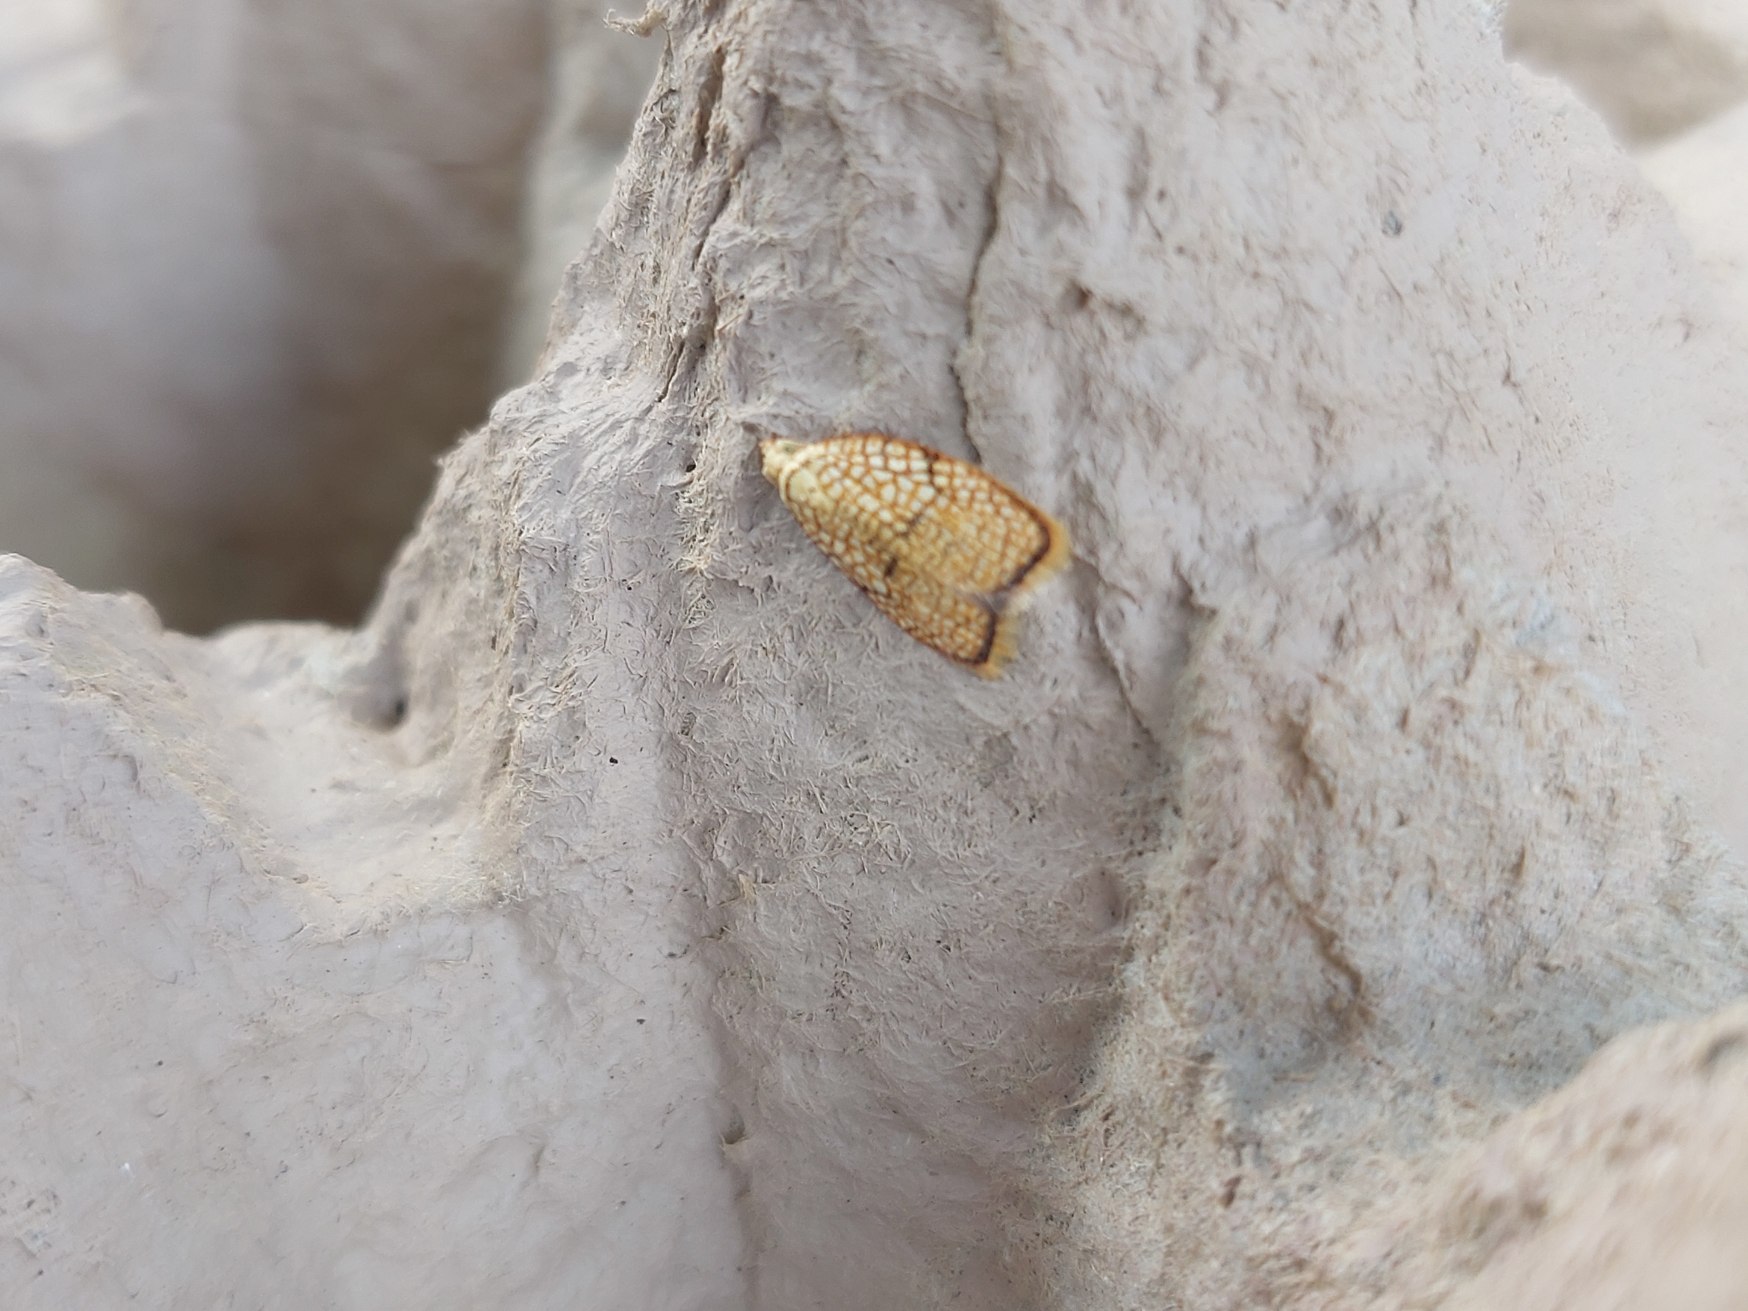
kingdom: Animalia
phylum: Arthropoda
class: Insecta
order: Lepidoptera
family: Tortricidae
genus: Acleris
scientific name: Acleris forsskaleana
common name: Gul ahornvikler
